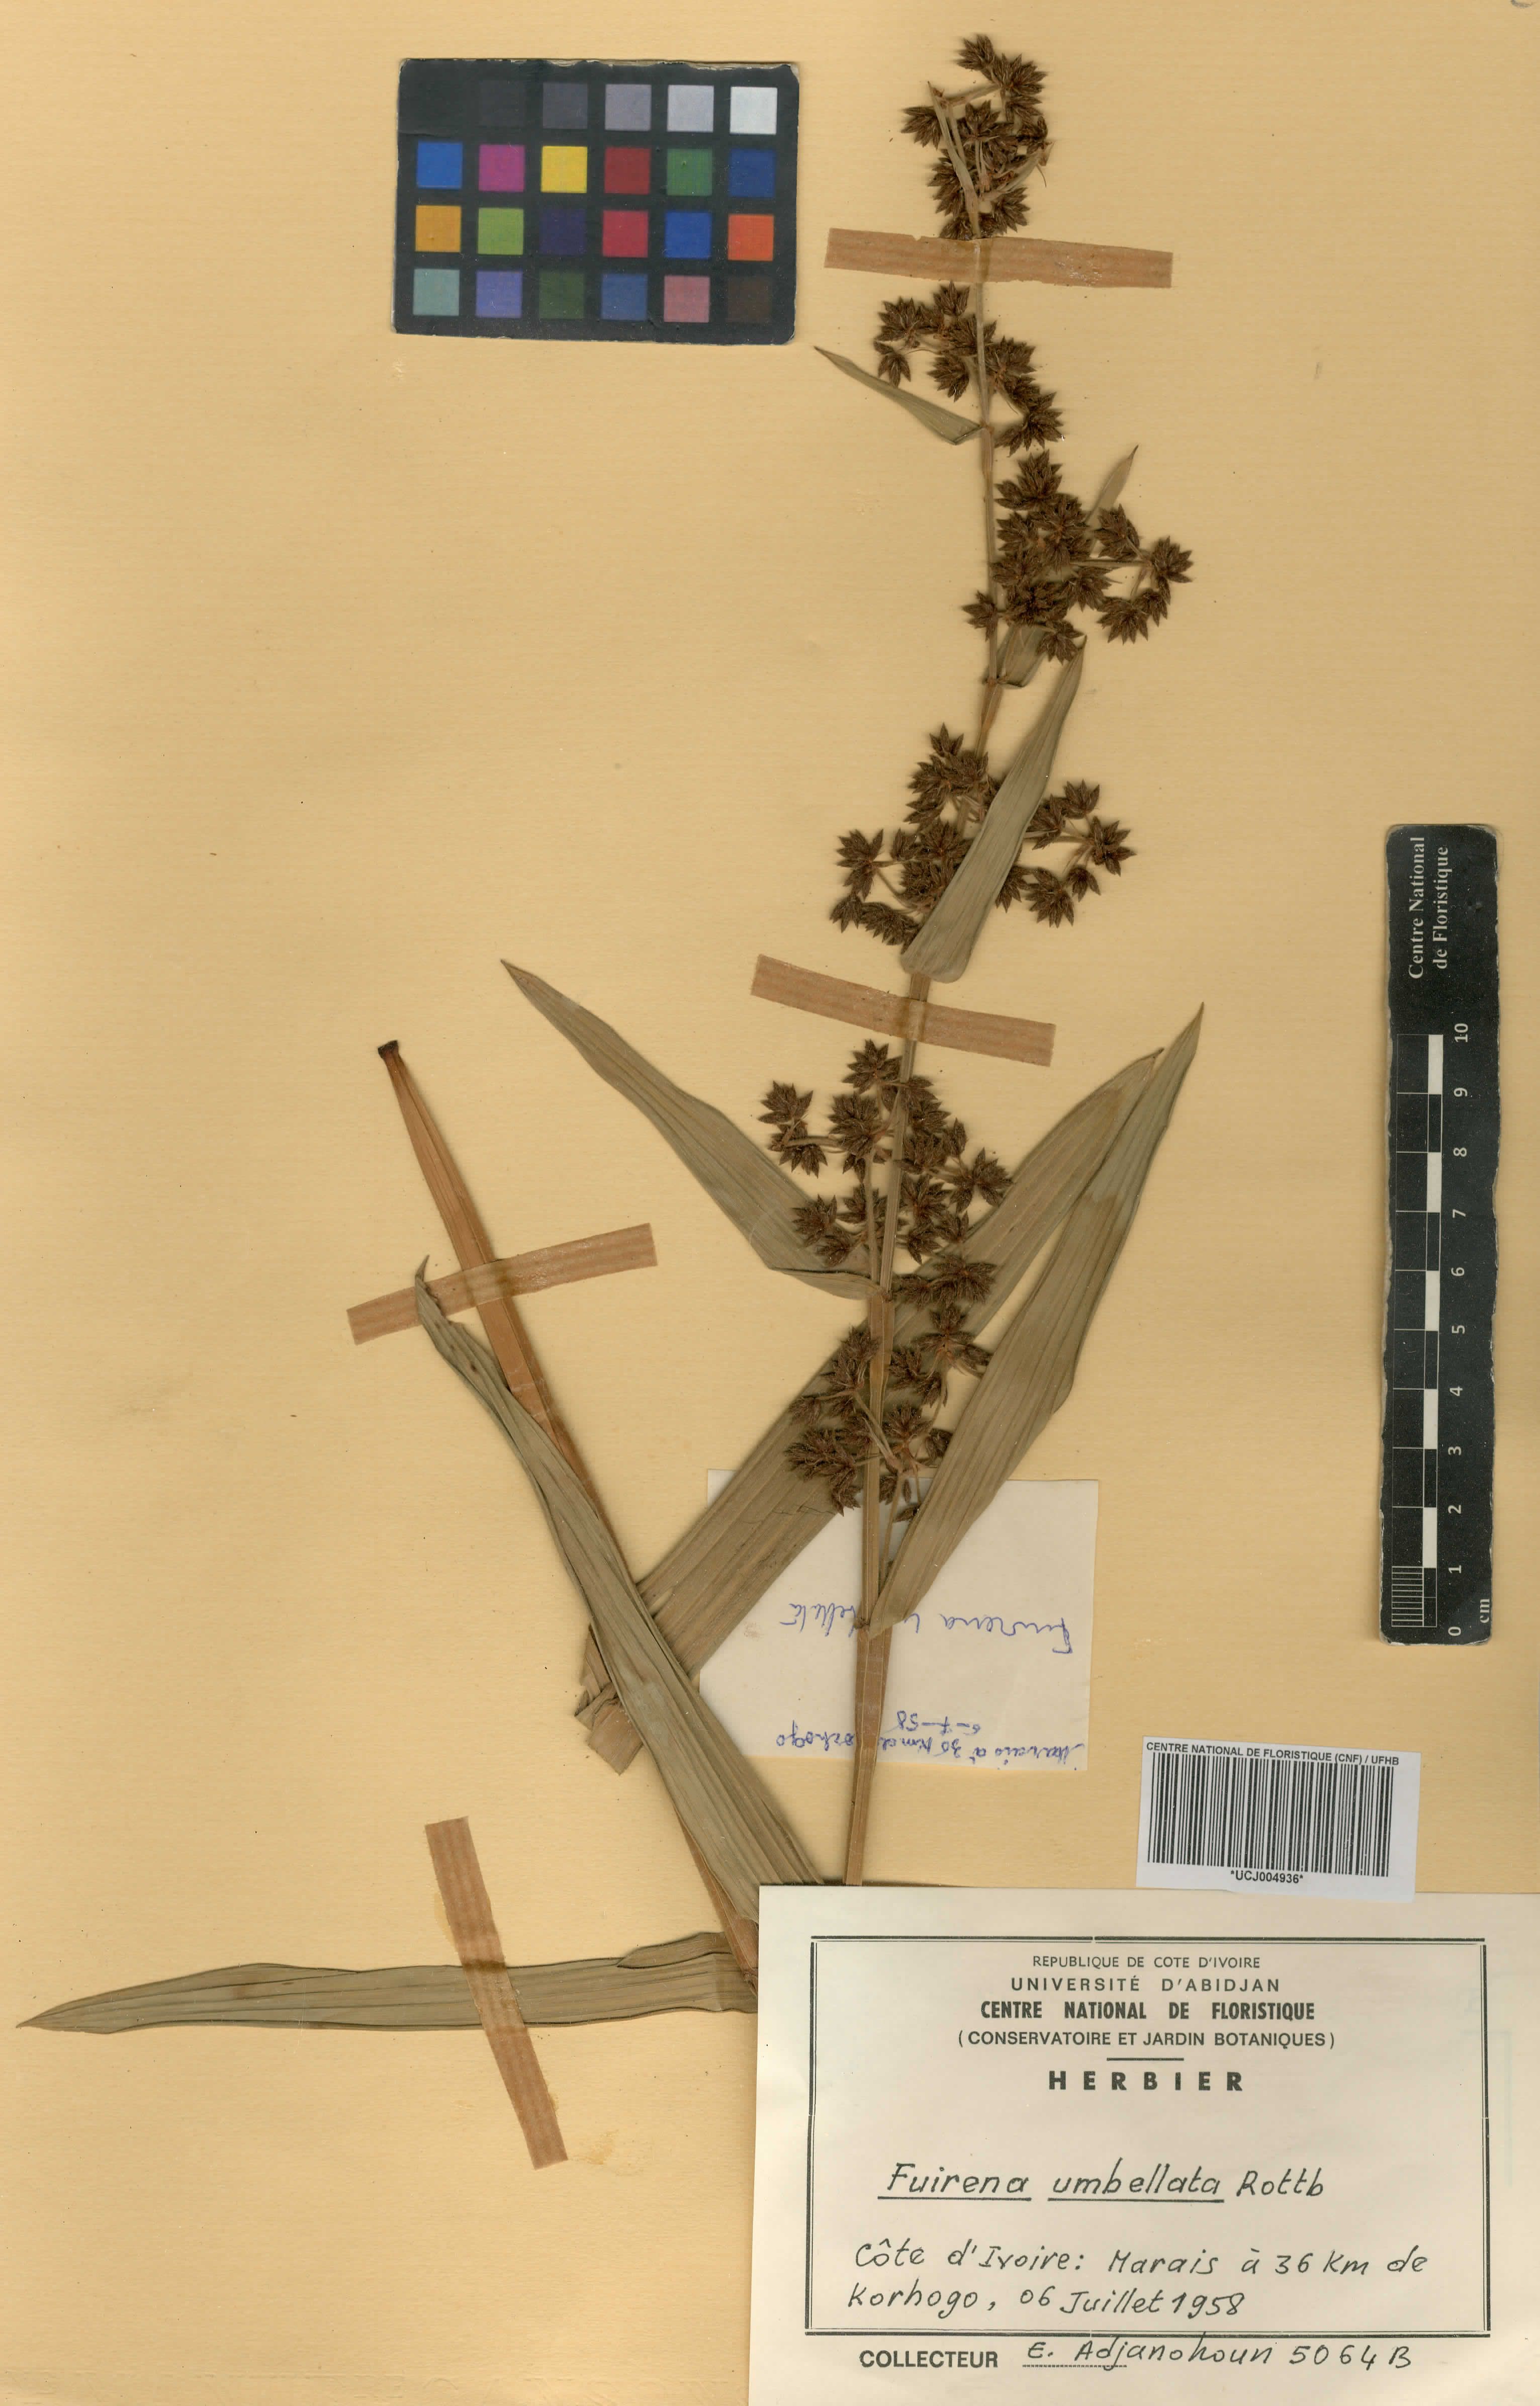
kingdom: Plantae
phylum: Tracheophyta
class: Liliopsida
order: Poales
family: Cyperaceae
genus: Fuirena
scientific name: Fuirena umbellata
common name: Yefen
